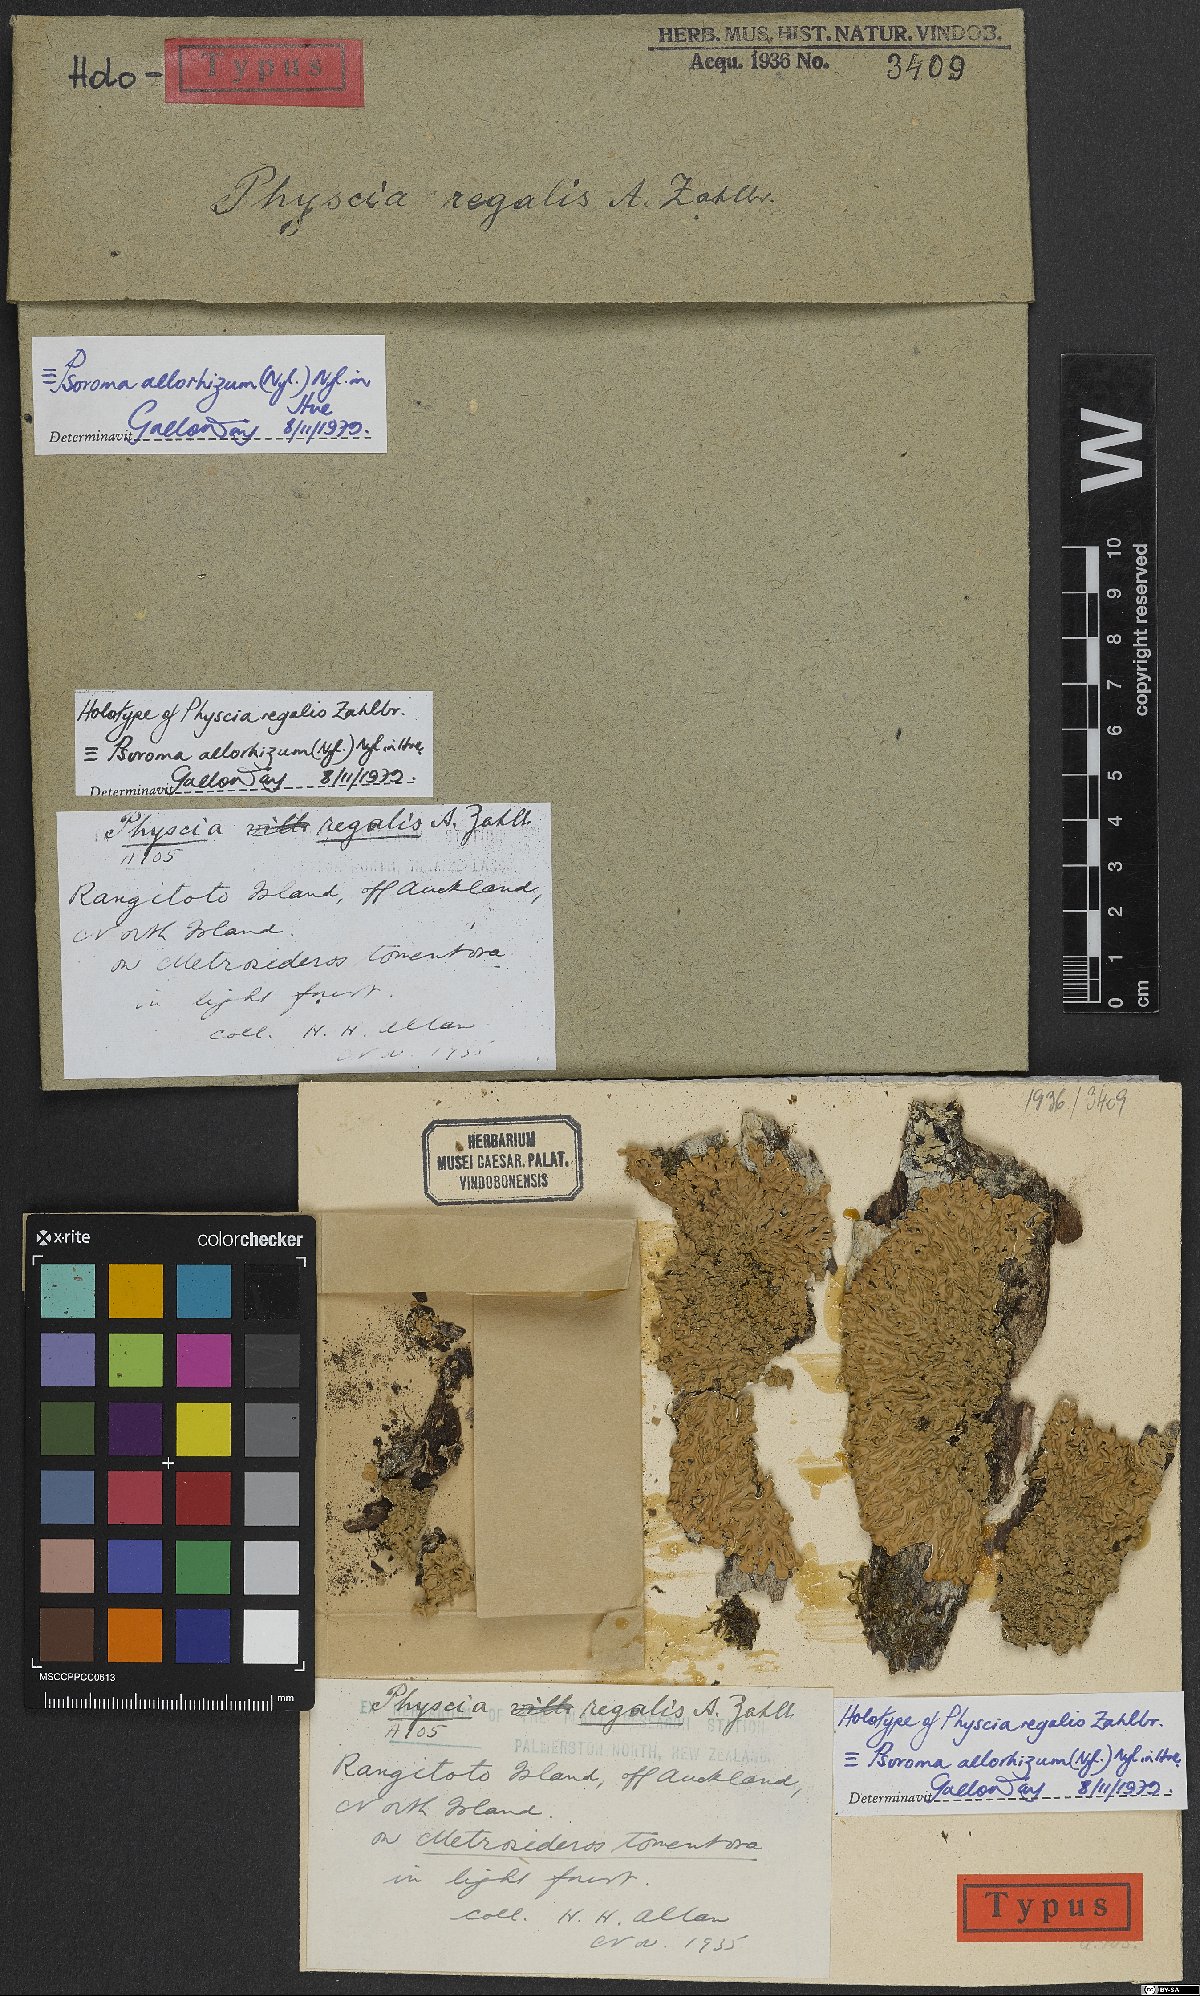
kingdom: Fungi
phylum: Ascomycota
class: Lecanoromycetes
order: Caliciales
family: Physciaceae
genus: Physcia
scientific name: Physcia
